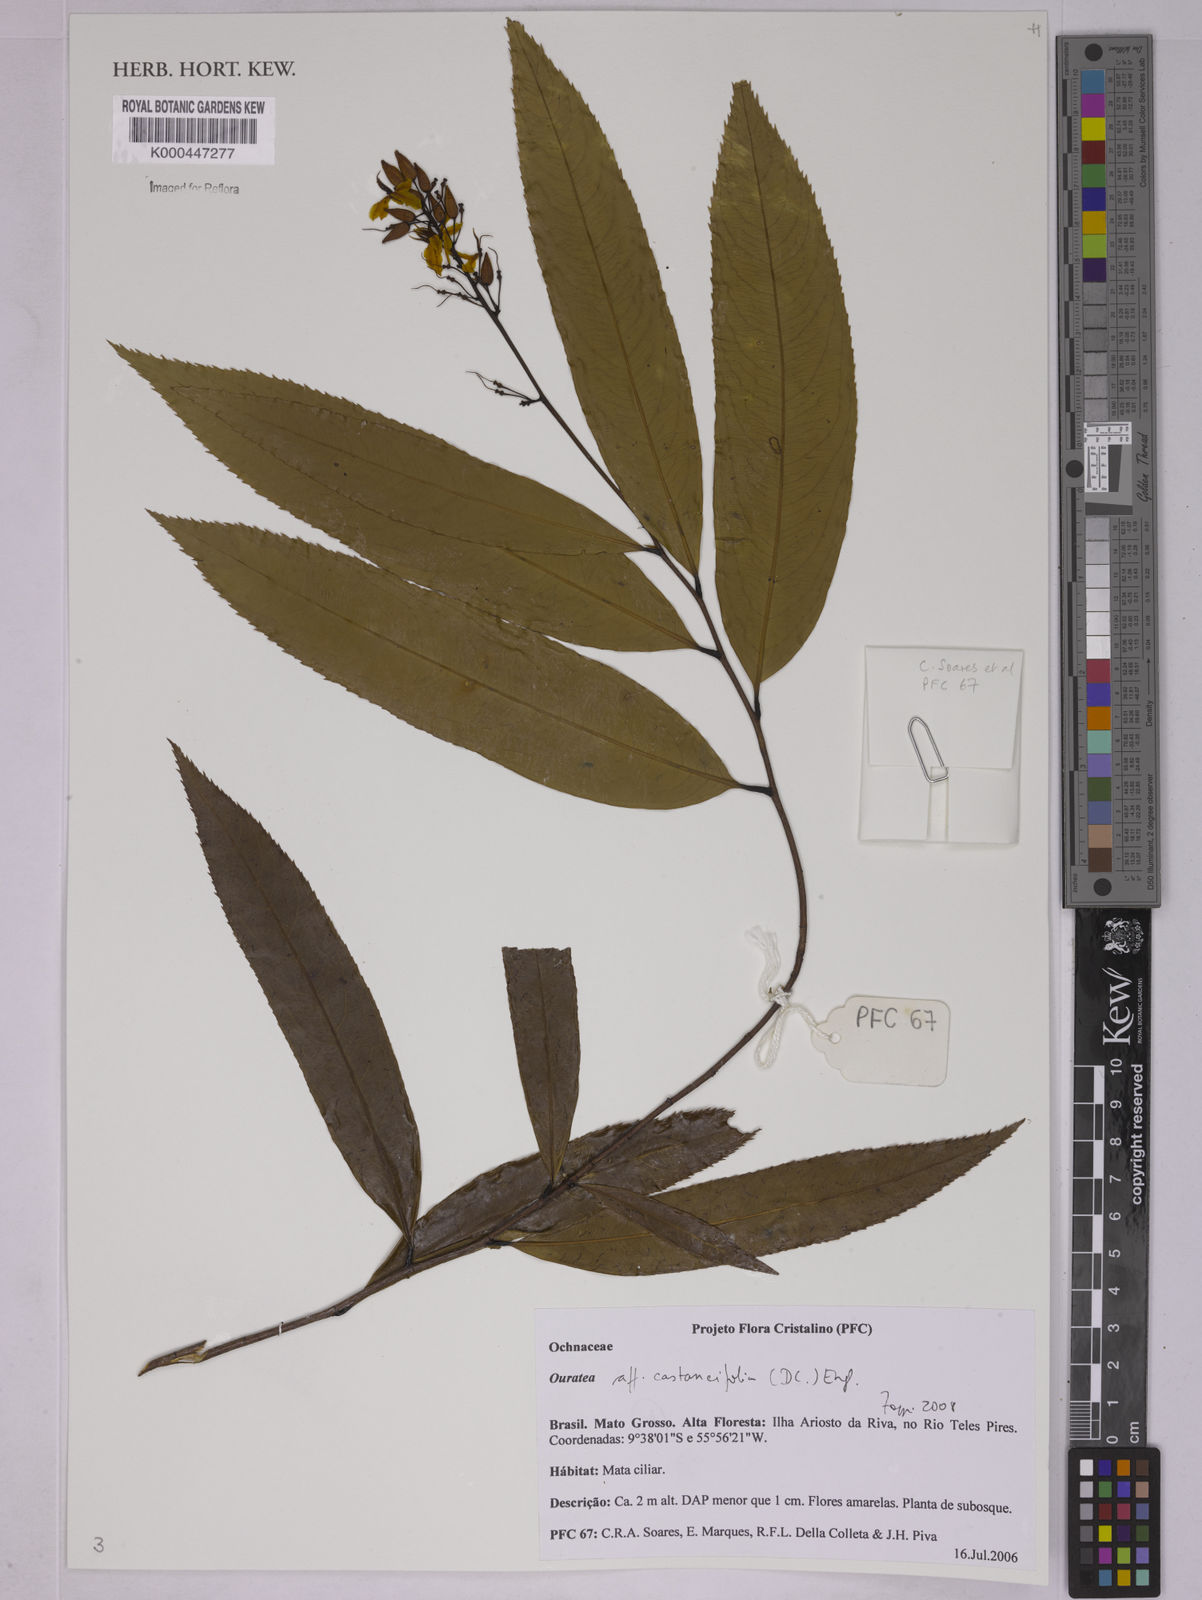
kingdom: Plantae
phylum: Tracheophyta
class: Magnoliopsida
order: Malpighiales
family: Ochnaceae
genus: Ouratea
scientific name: Ouratea castaneifolia
